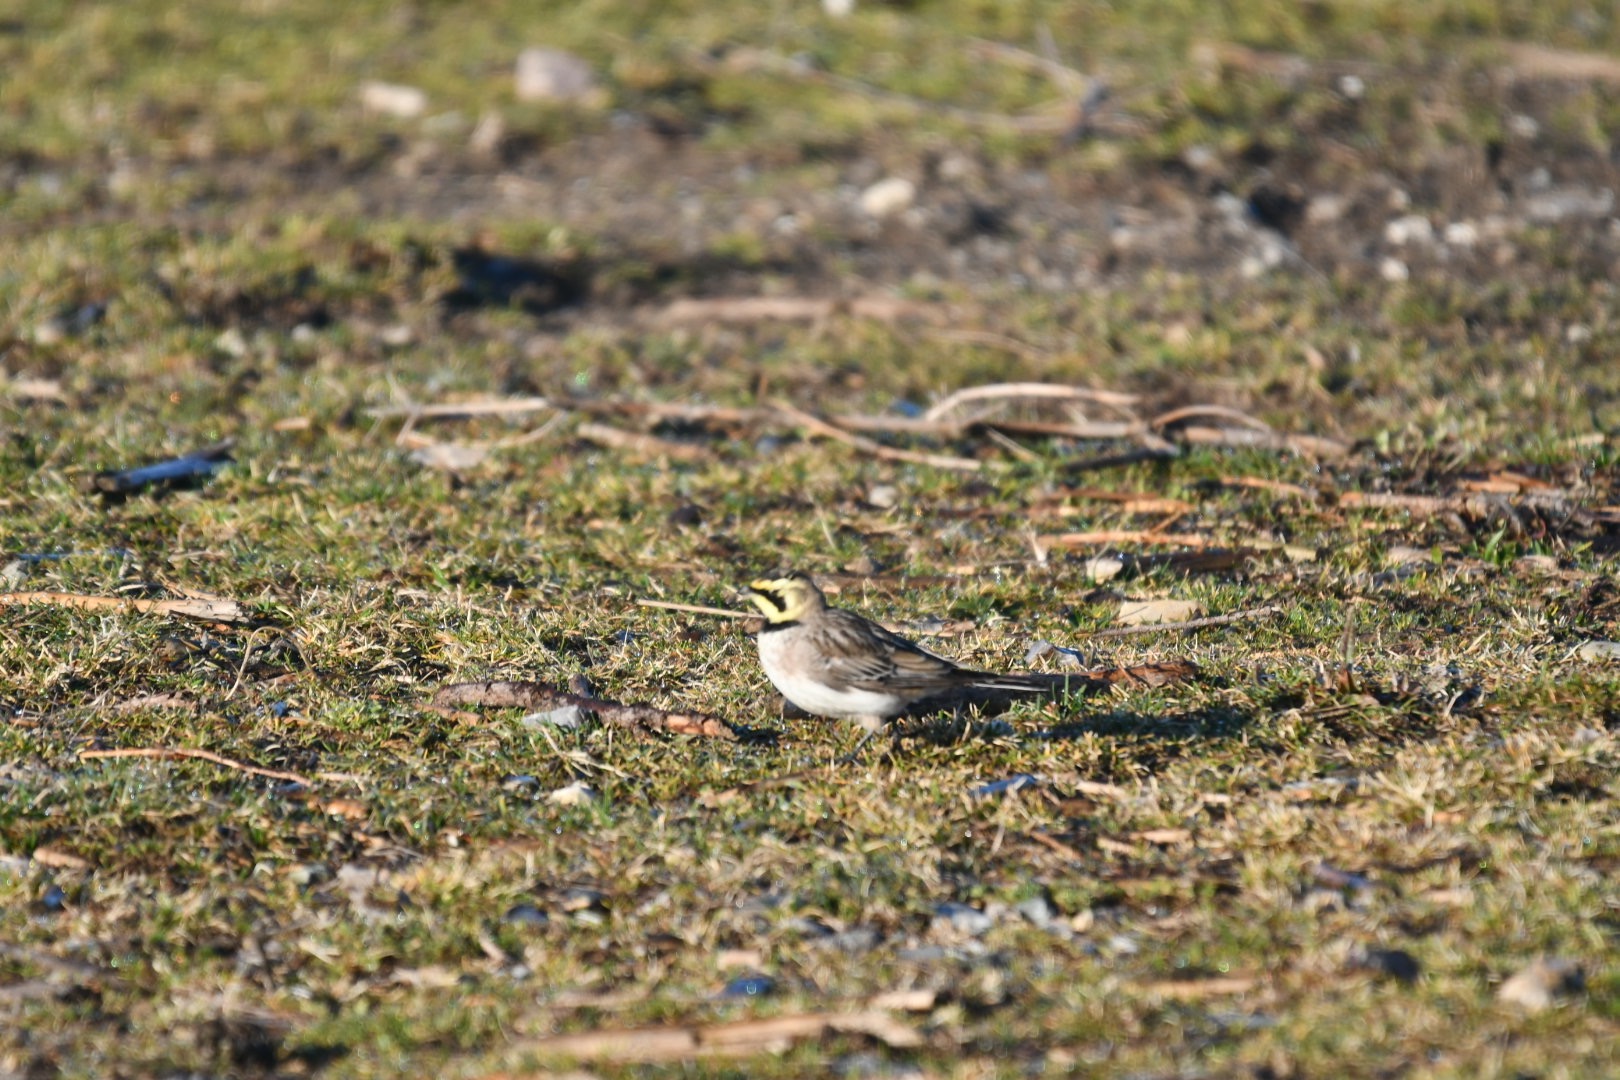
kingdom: Animalia
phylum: Chordata
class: Aves
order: Passeriformes
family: Alaudidae
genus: Eremophila
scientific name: Eremophila alpestris
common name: Bjerglærke
